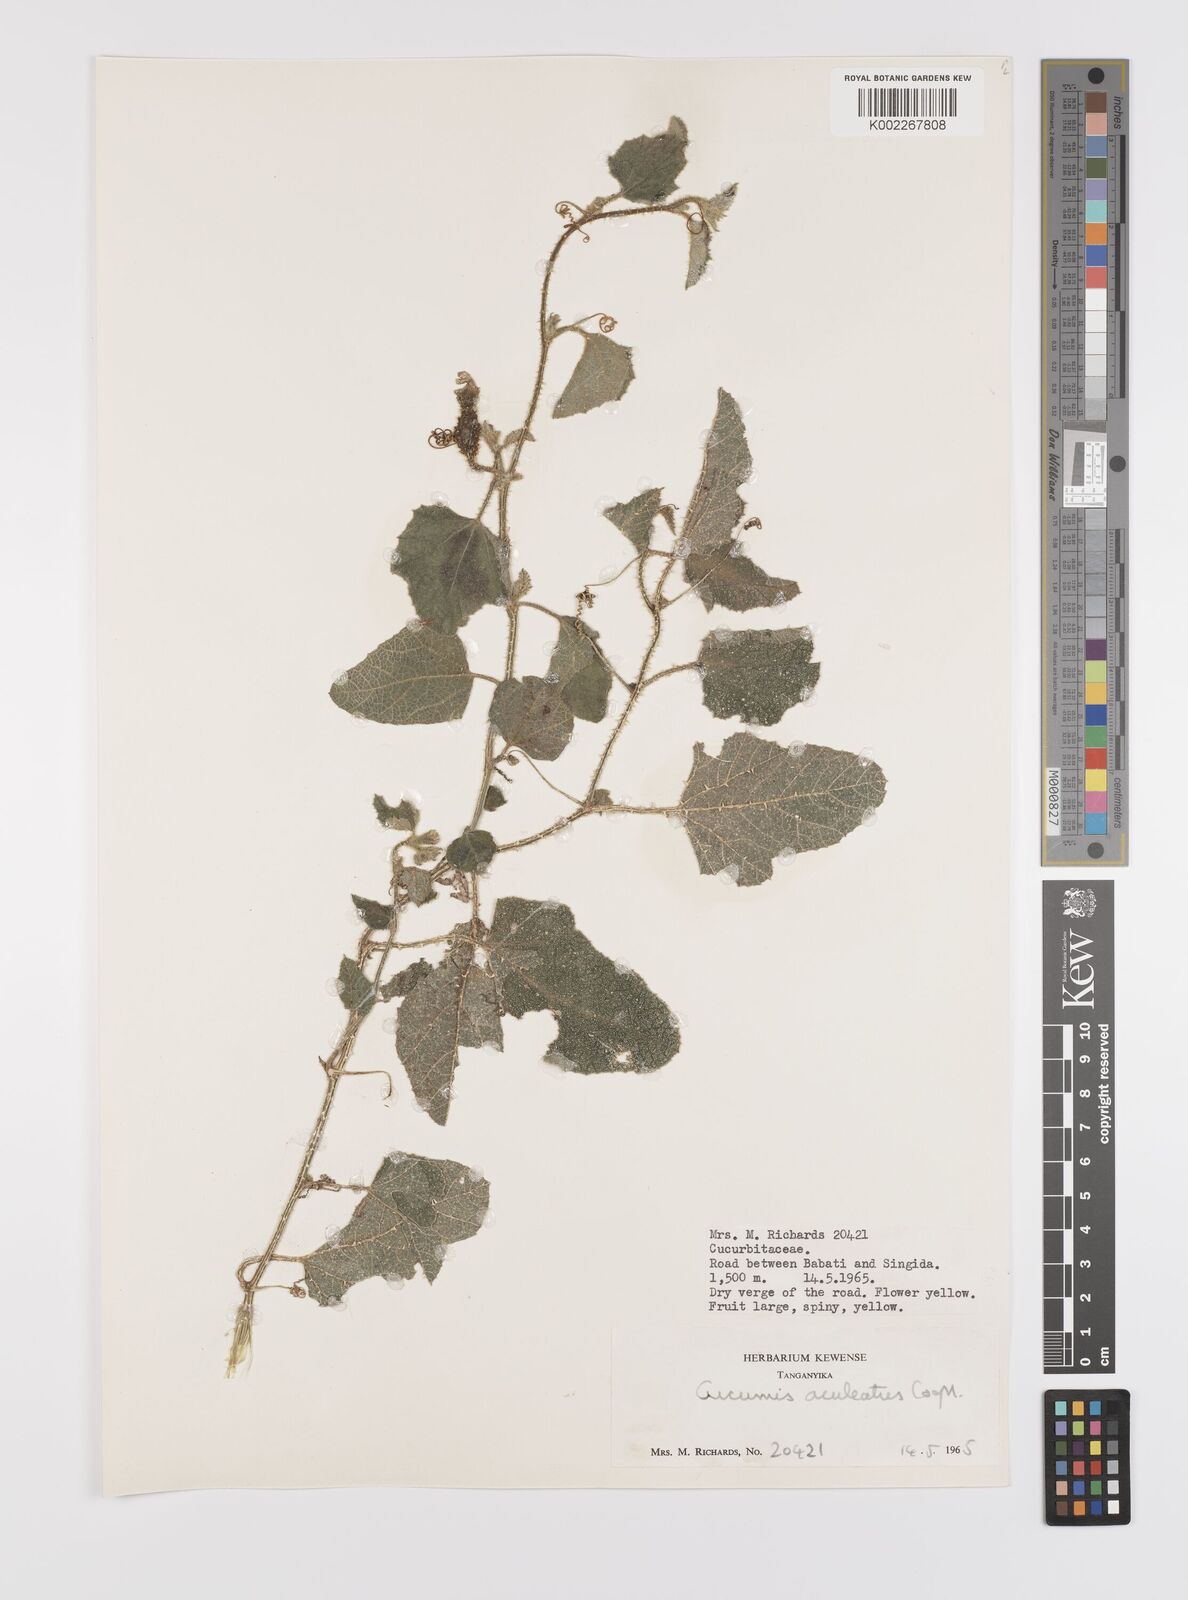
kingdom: Plantae
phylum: Tracheophyta
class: Magnoliopsida
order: Cucurbitales
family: Cucurbitaceae
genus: Cucumis
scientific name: Cucumis aculeatus
